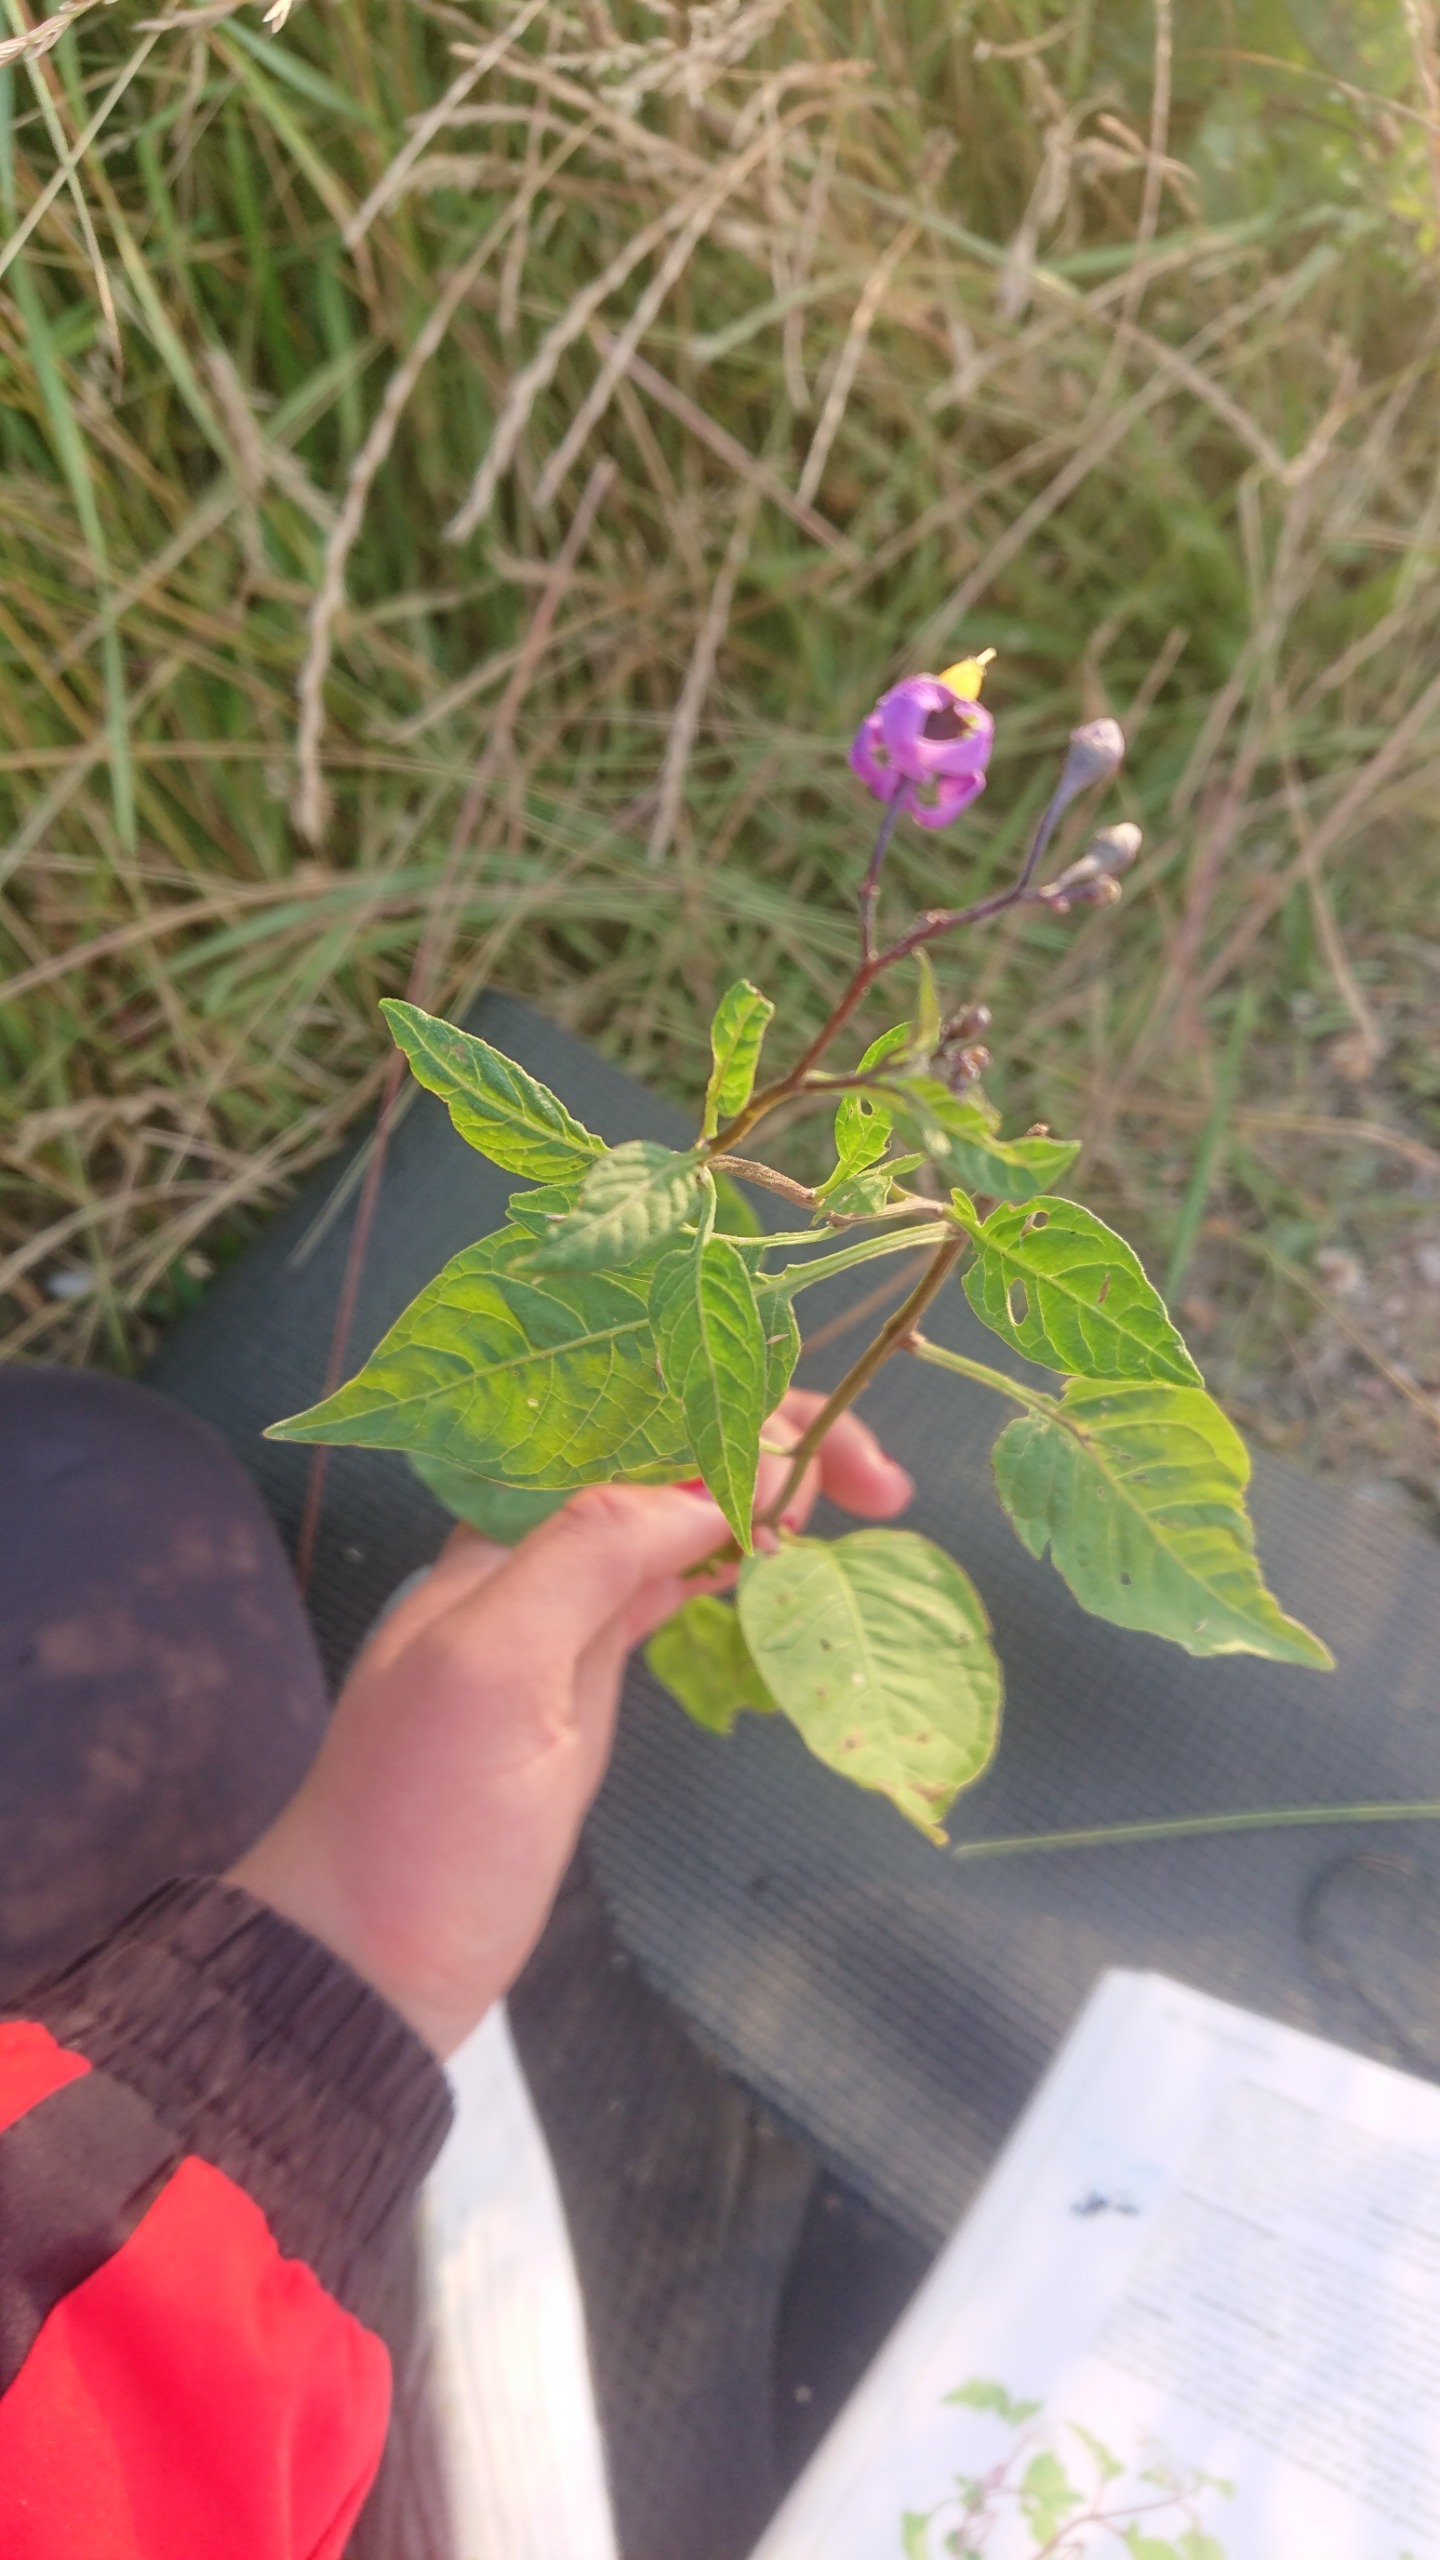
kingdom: Plantae
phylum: Tracheophyta
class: Magnoliopsida
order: Solanales
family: Solanaceae
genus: Solanum
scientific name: Solanum dulcamara
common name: Bittersød natskygge
